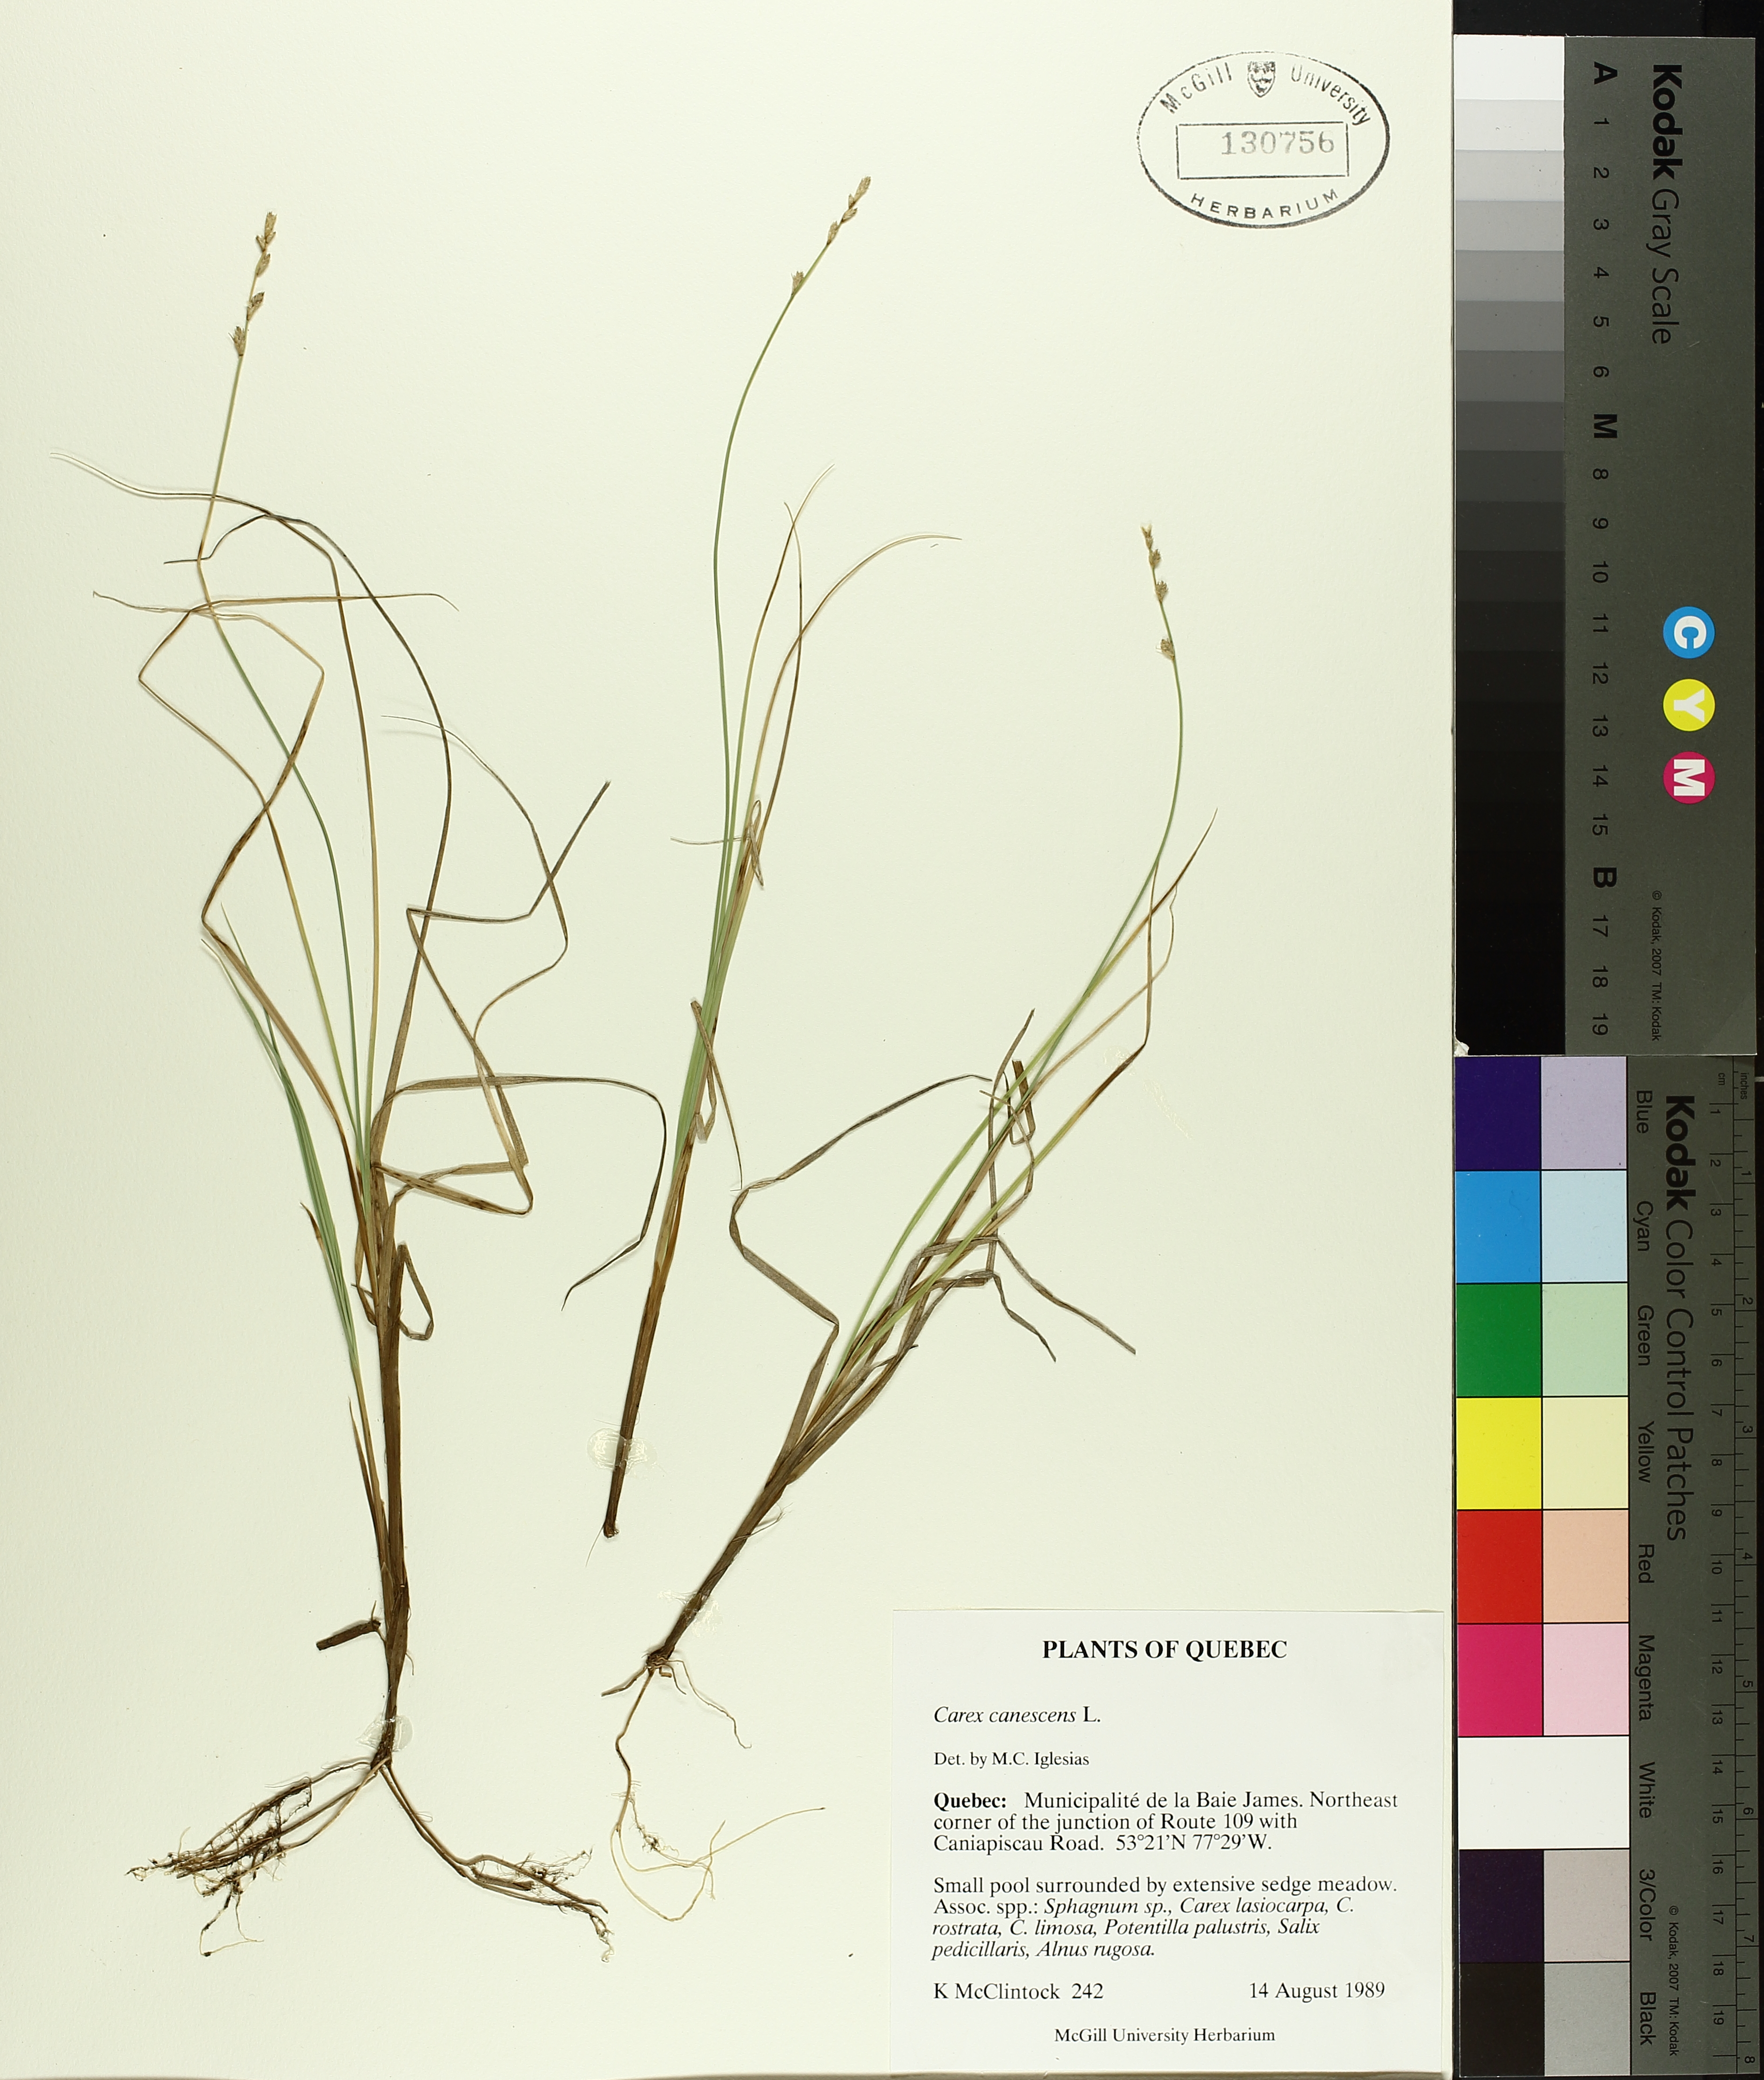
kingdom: Plantae
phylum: Tracheophyta
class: Liliopsida
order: Poales
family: Cyperaceae
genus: Carex
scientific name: Carex canescens
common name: White sedge
